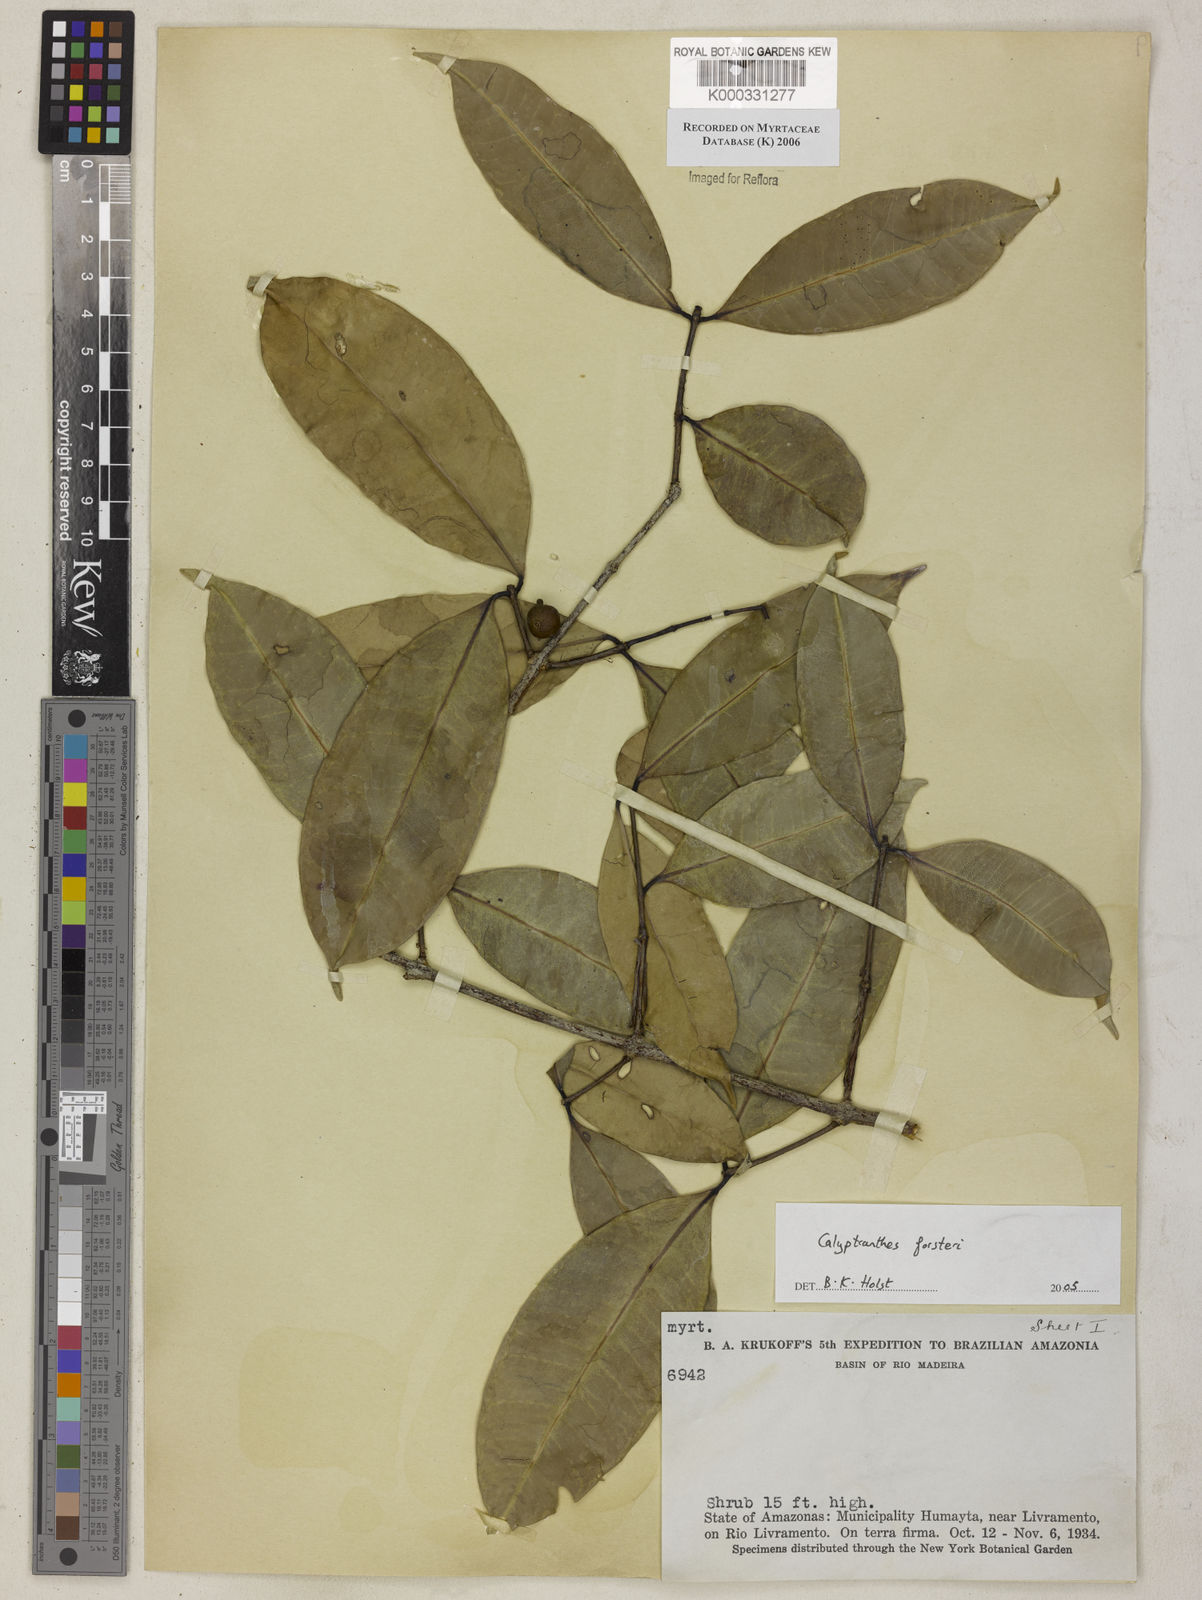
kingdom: Plantae
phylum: Tracheophyta
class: Magnoliopsida
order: Myrtales
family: Myrtaceae
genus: Myrcia
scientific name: Myrcia forsteri
